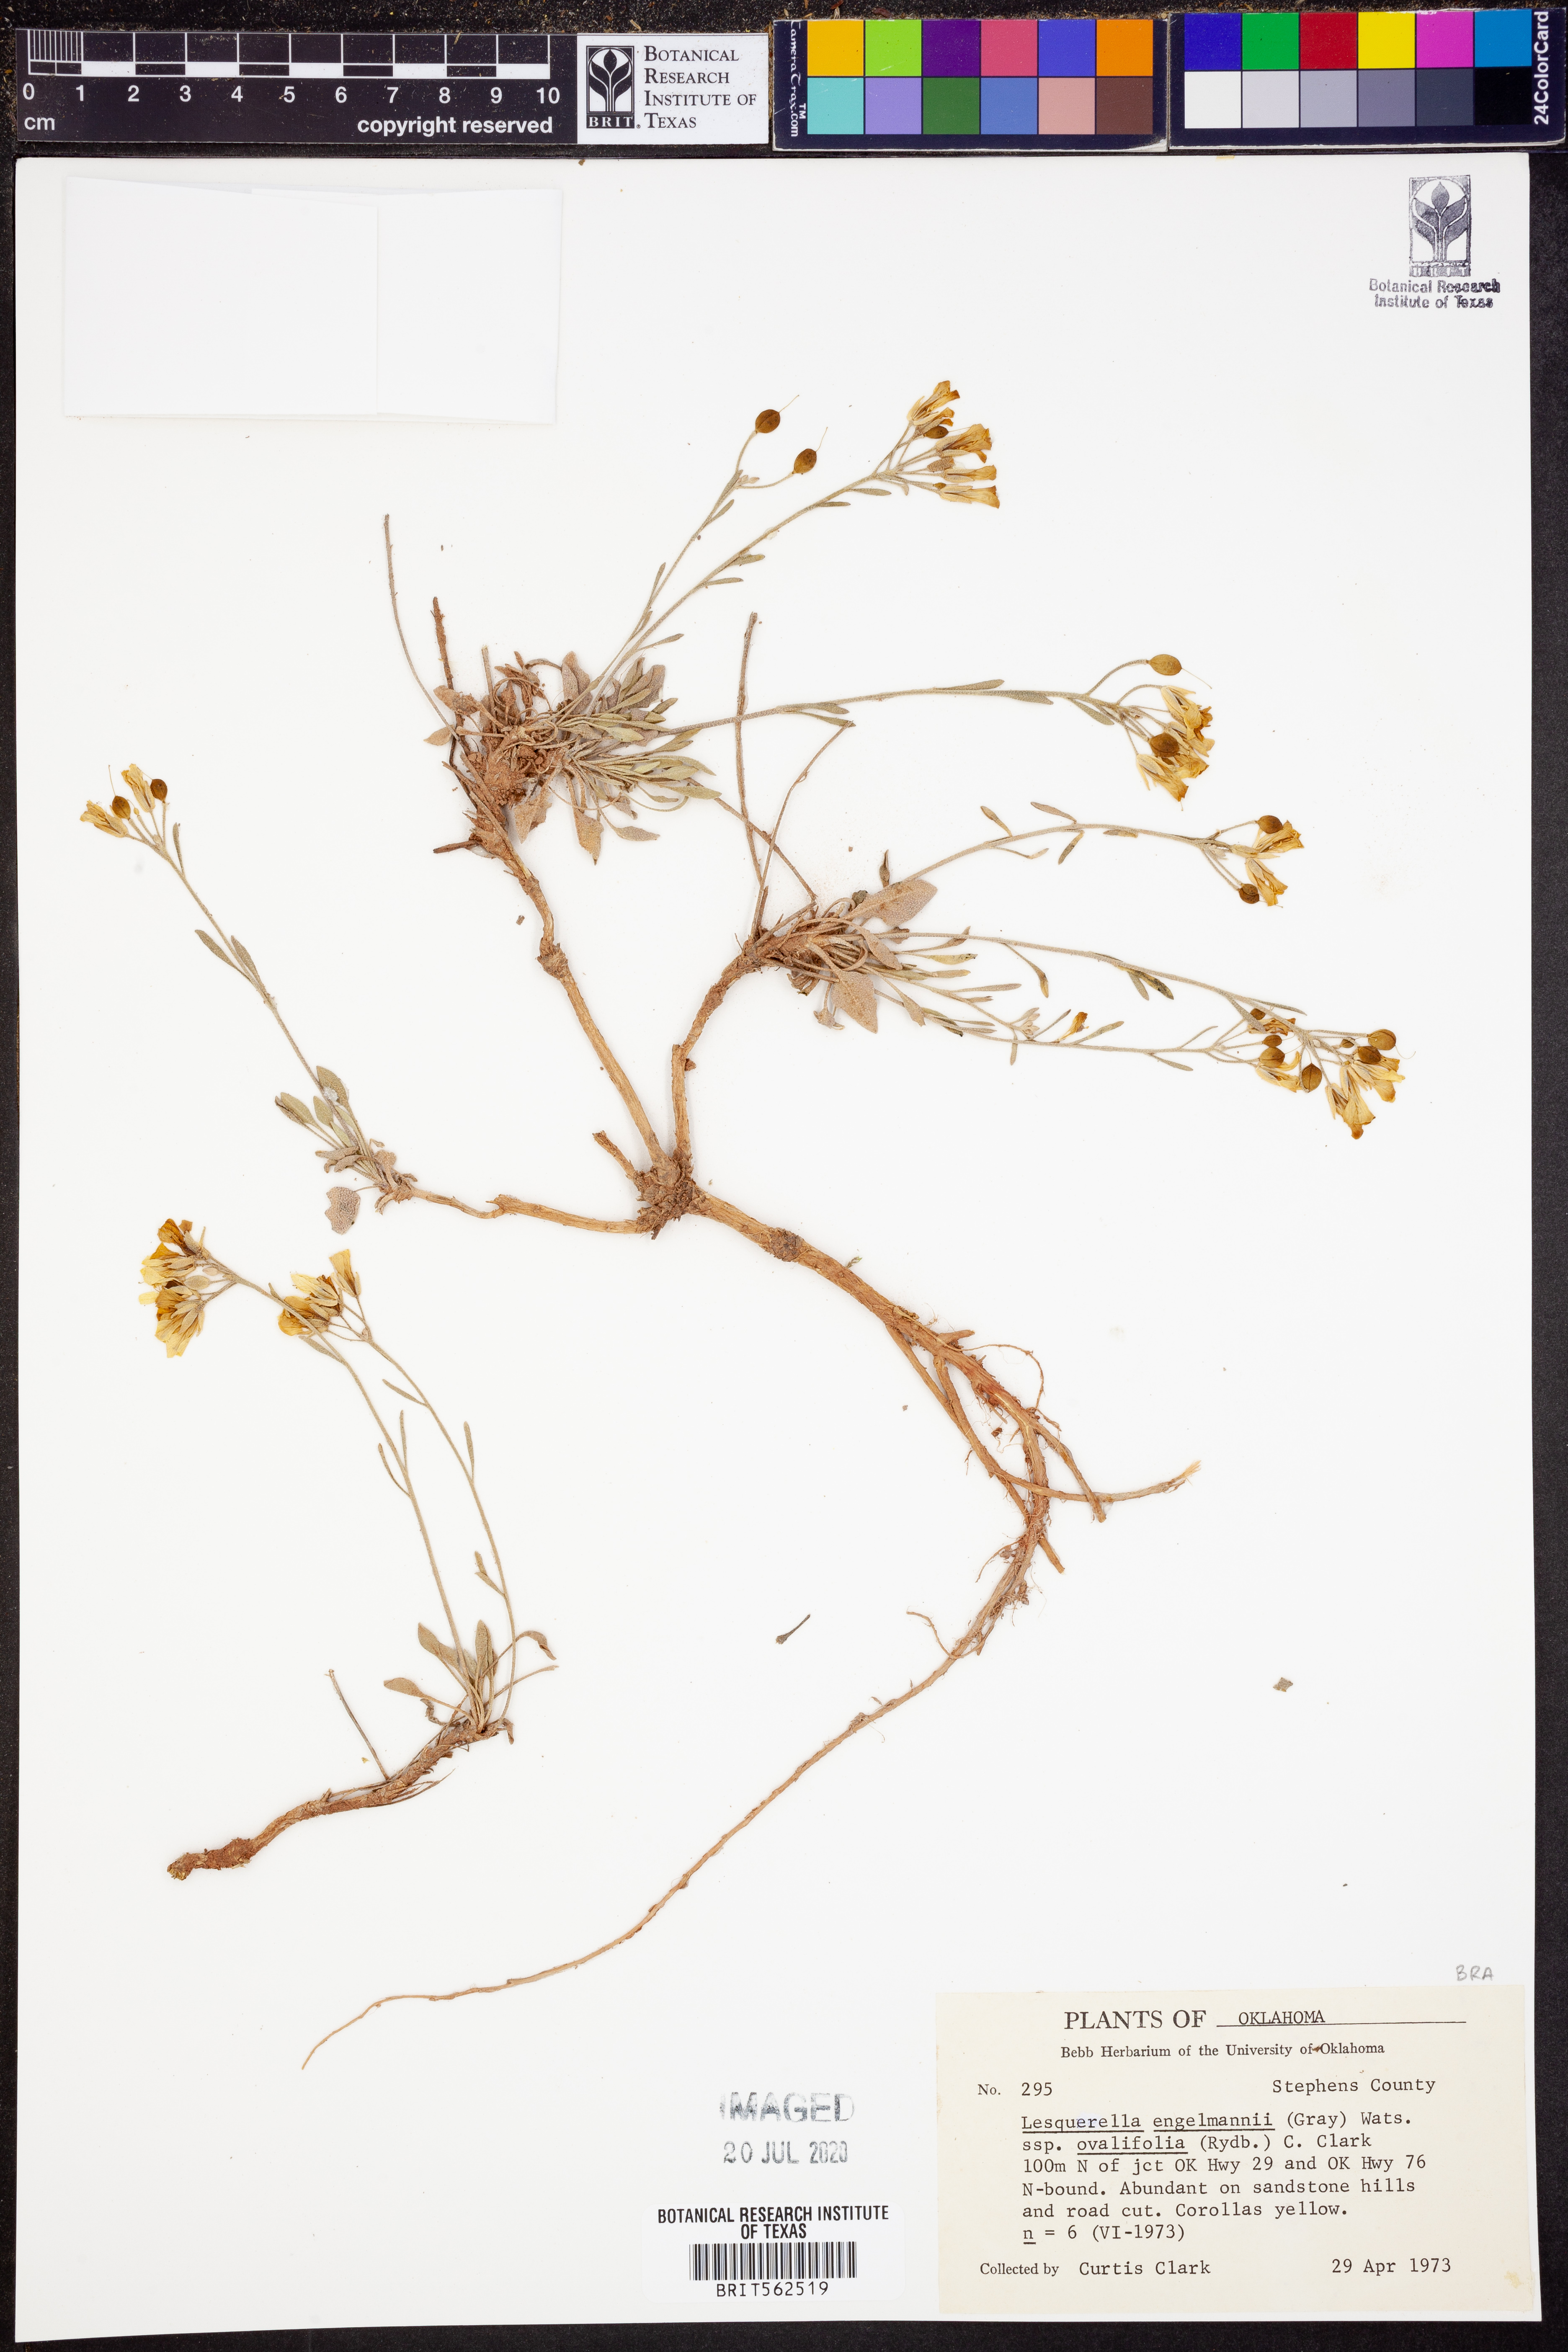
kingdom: Plantae
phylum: Tracheophyta
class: Magnoliopsida
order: Brassicales
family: Brassicaceae
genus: Physaria
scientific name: Physaria ovalifolia
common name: Round-leaf bladderpod
